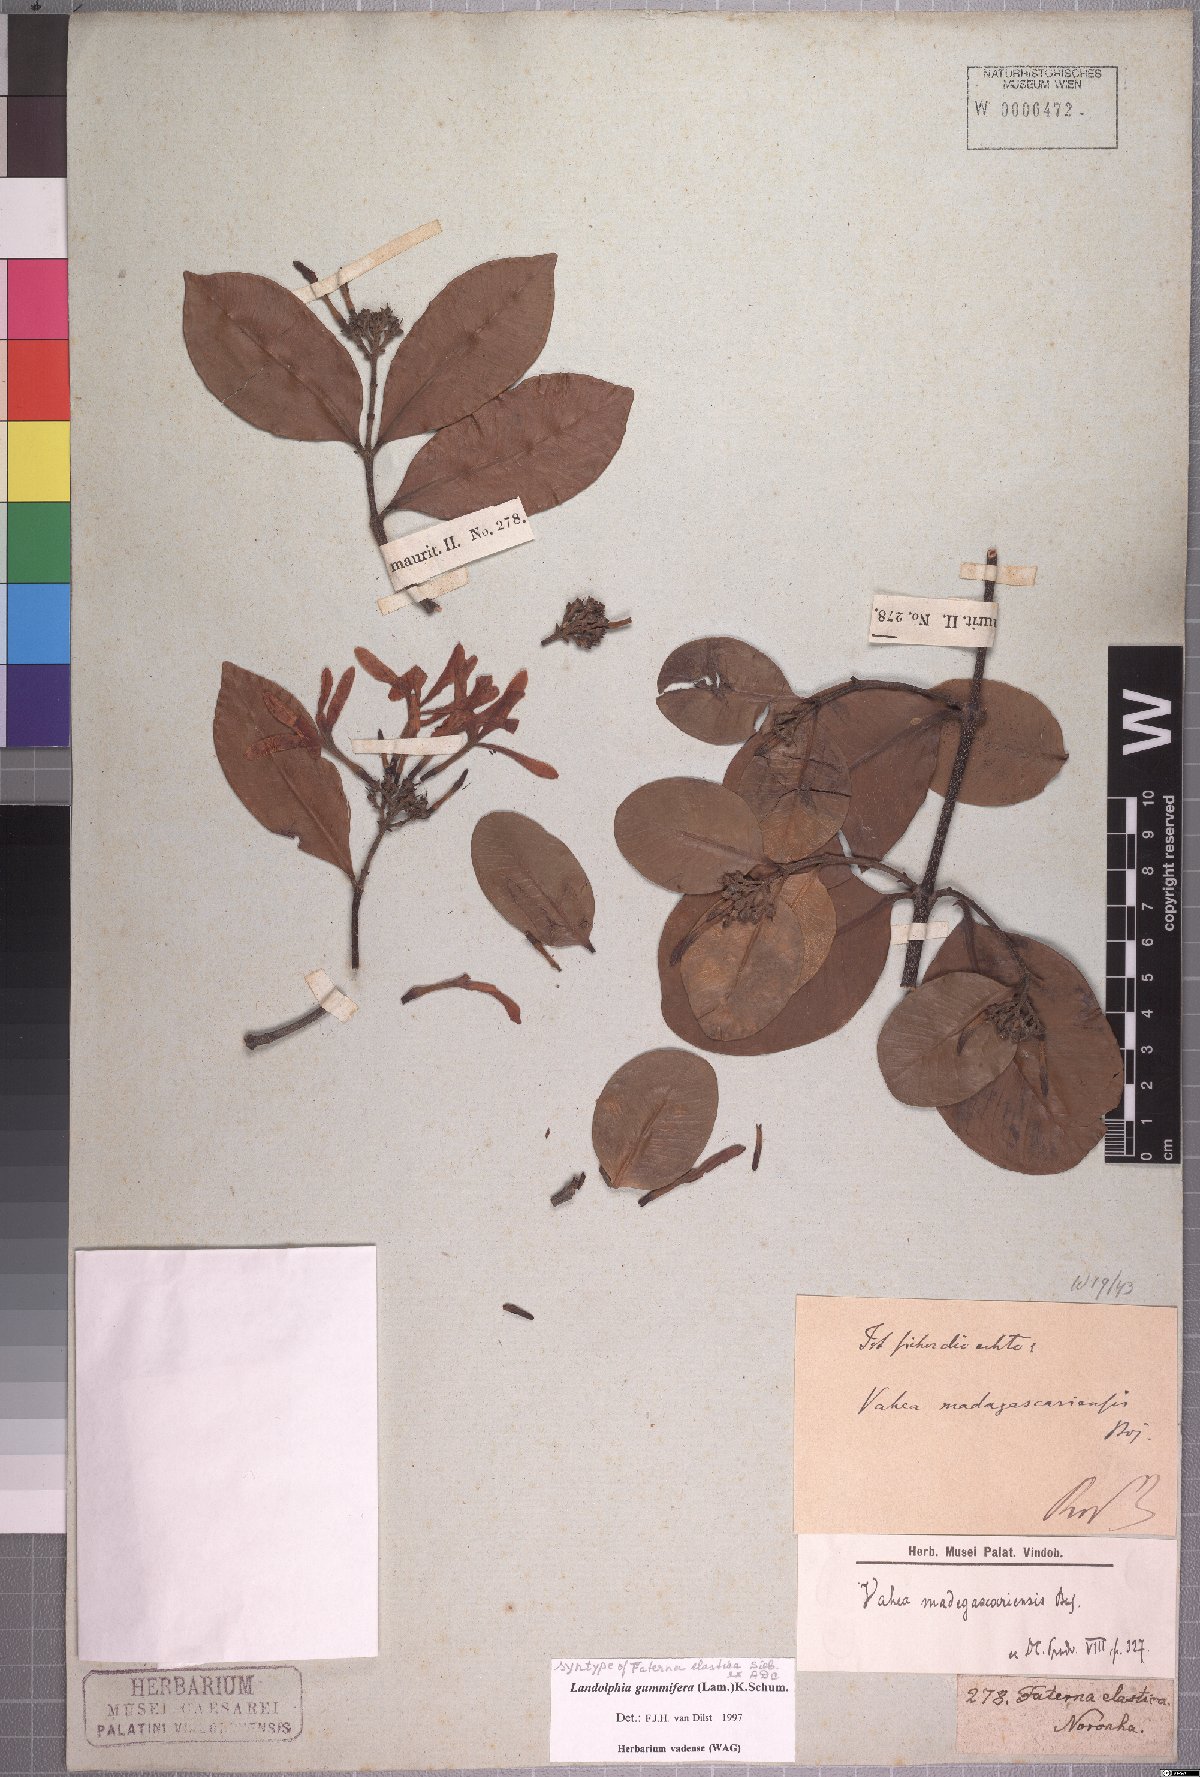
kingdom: Plantae
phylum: Tracheophyta
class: Magnoliopsida
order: Gentianales
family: Apocynaceae
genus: Landolphia
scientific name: Landolphia gummifera
